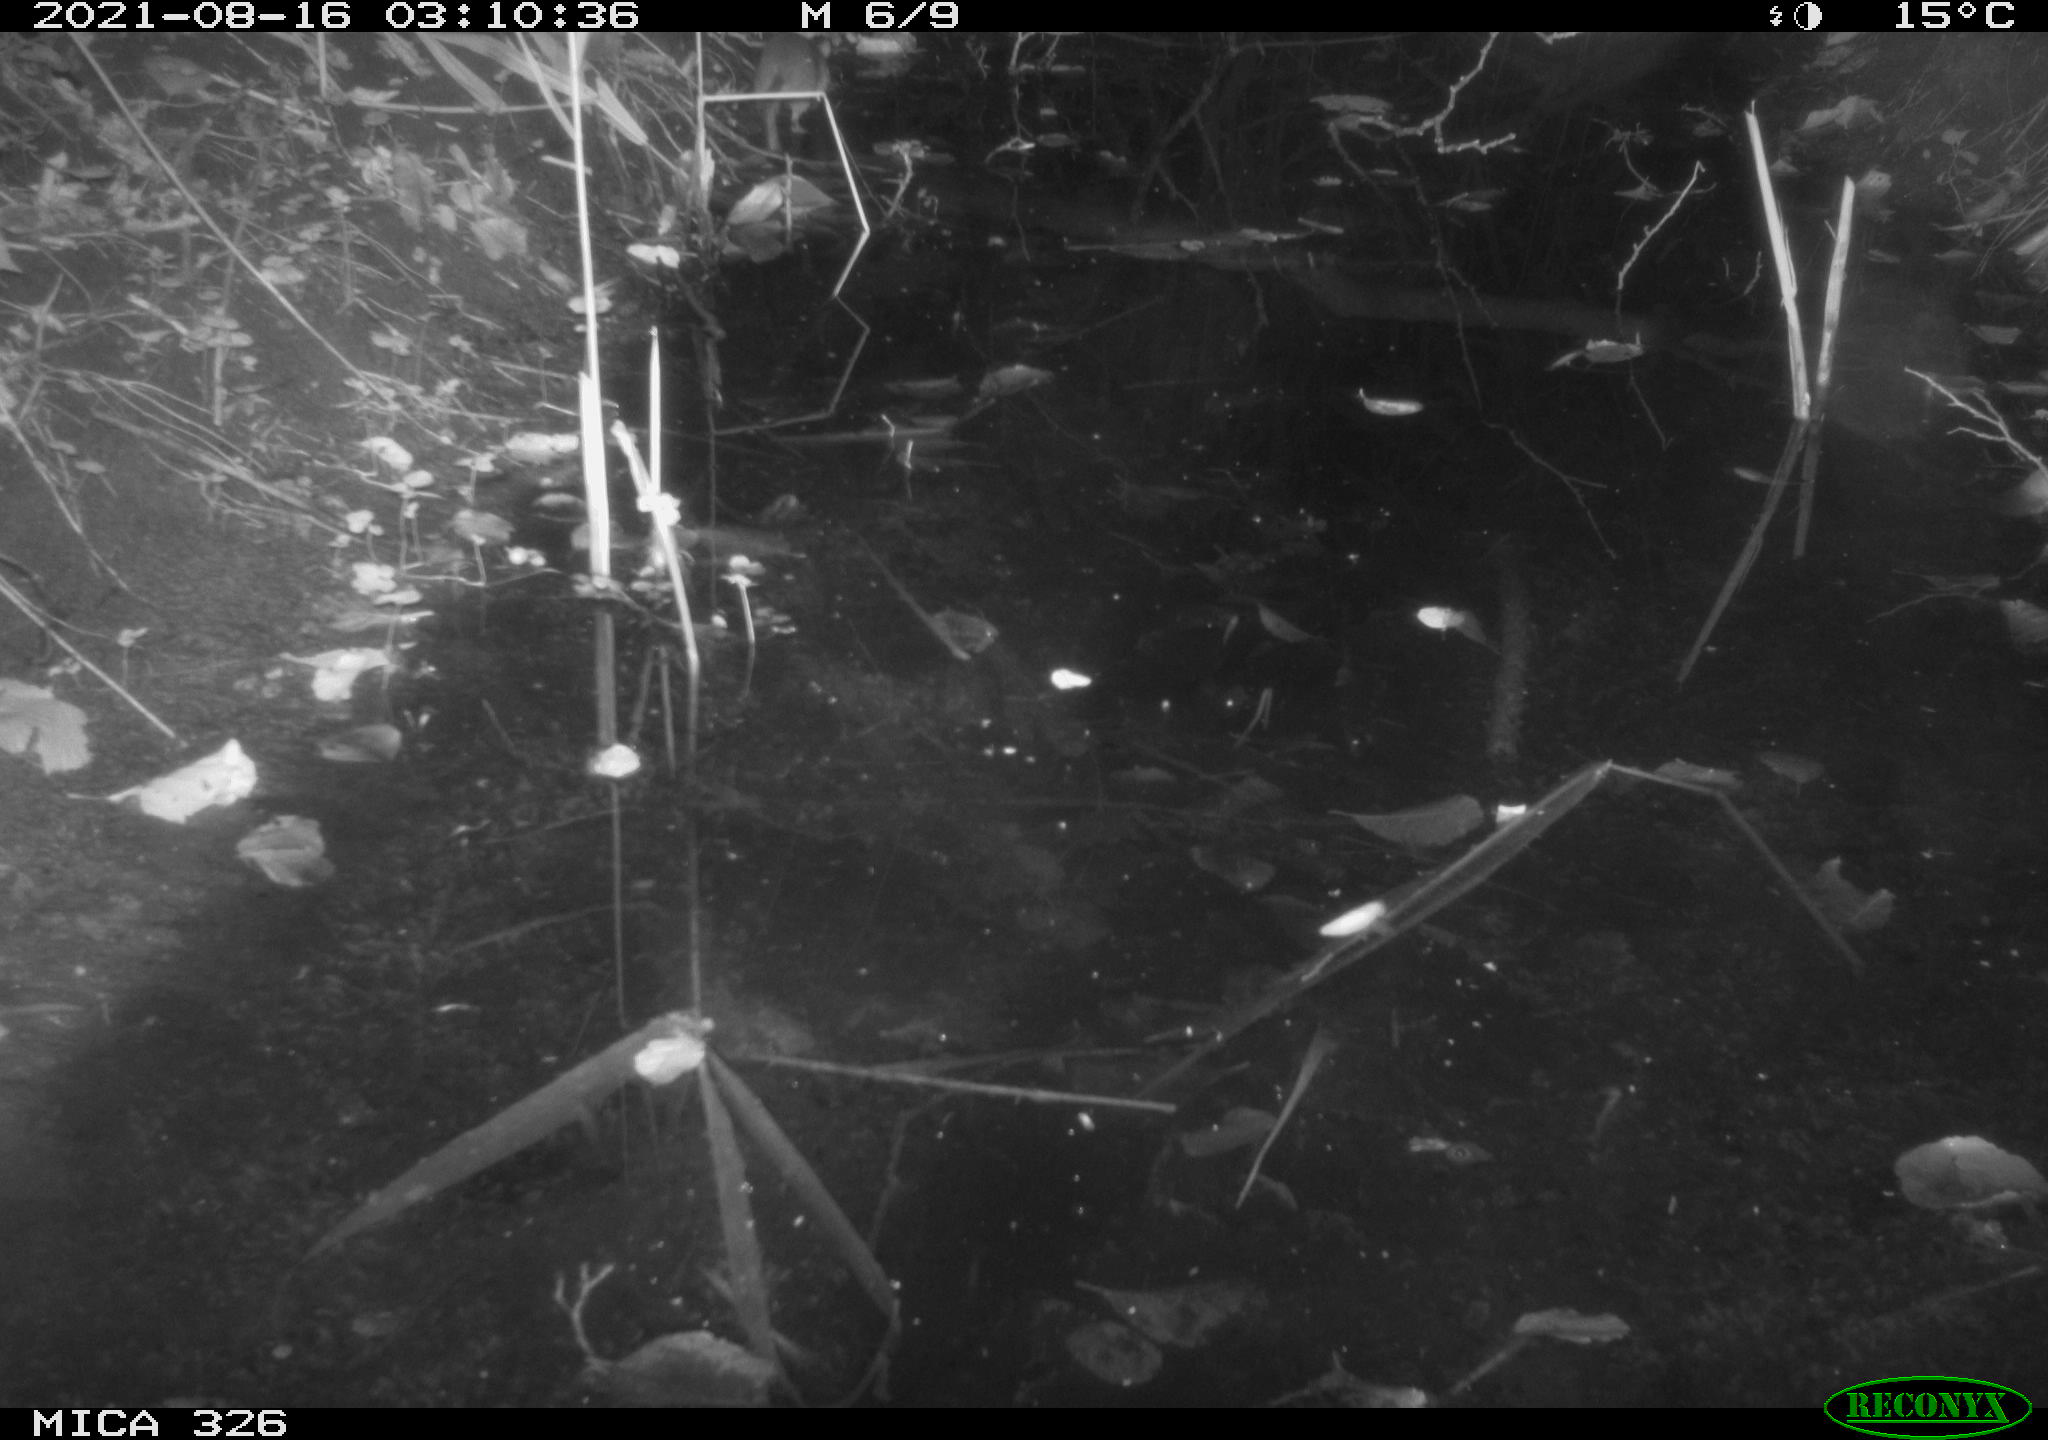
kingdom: Animalia
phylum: Chordata
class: Mammalia
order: Rodentia
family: Muridae
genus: Rattus
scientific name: Rattus norvegicus
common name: Brown rat
